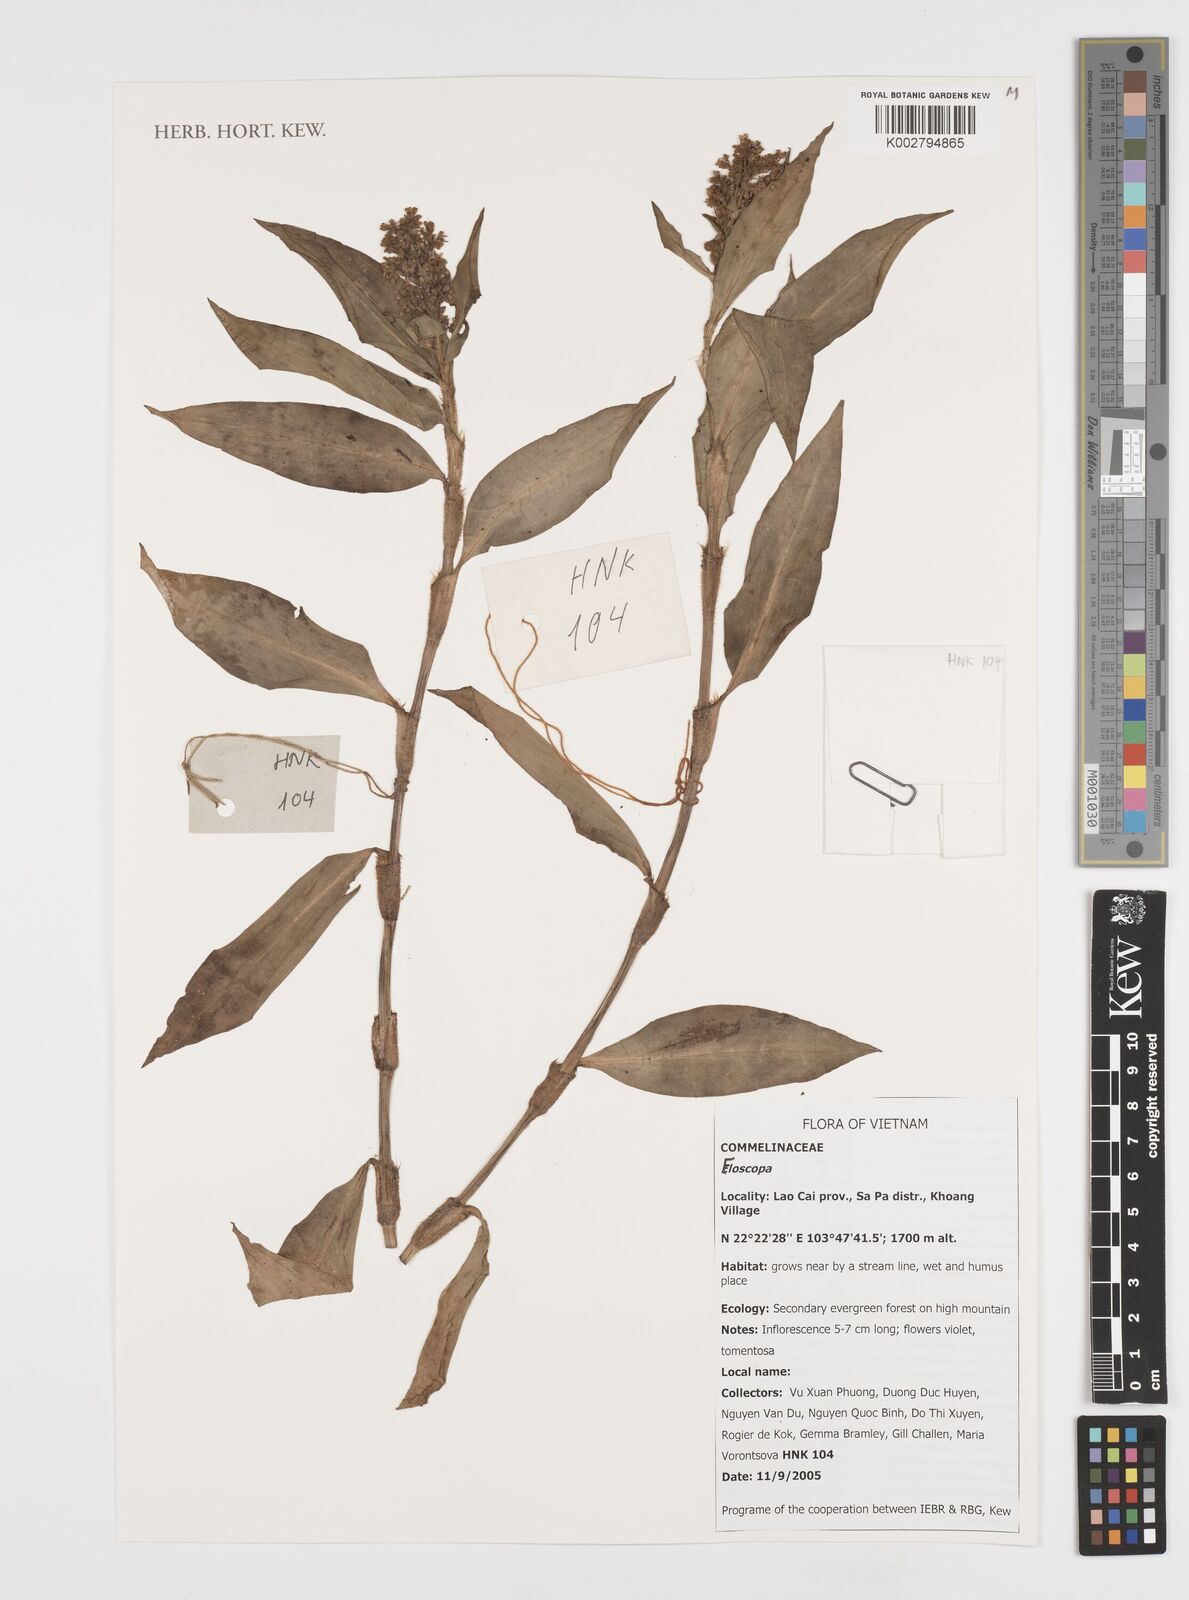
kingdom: Plantae
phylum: Tracheophyta
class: Liliopsida
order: Commelinales
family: Commelinaceae
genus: Floscopa
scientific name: Floscopa
